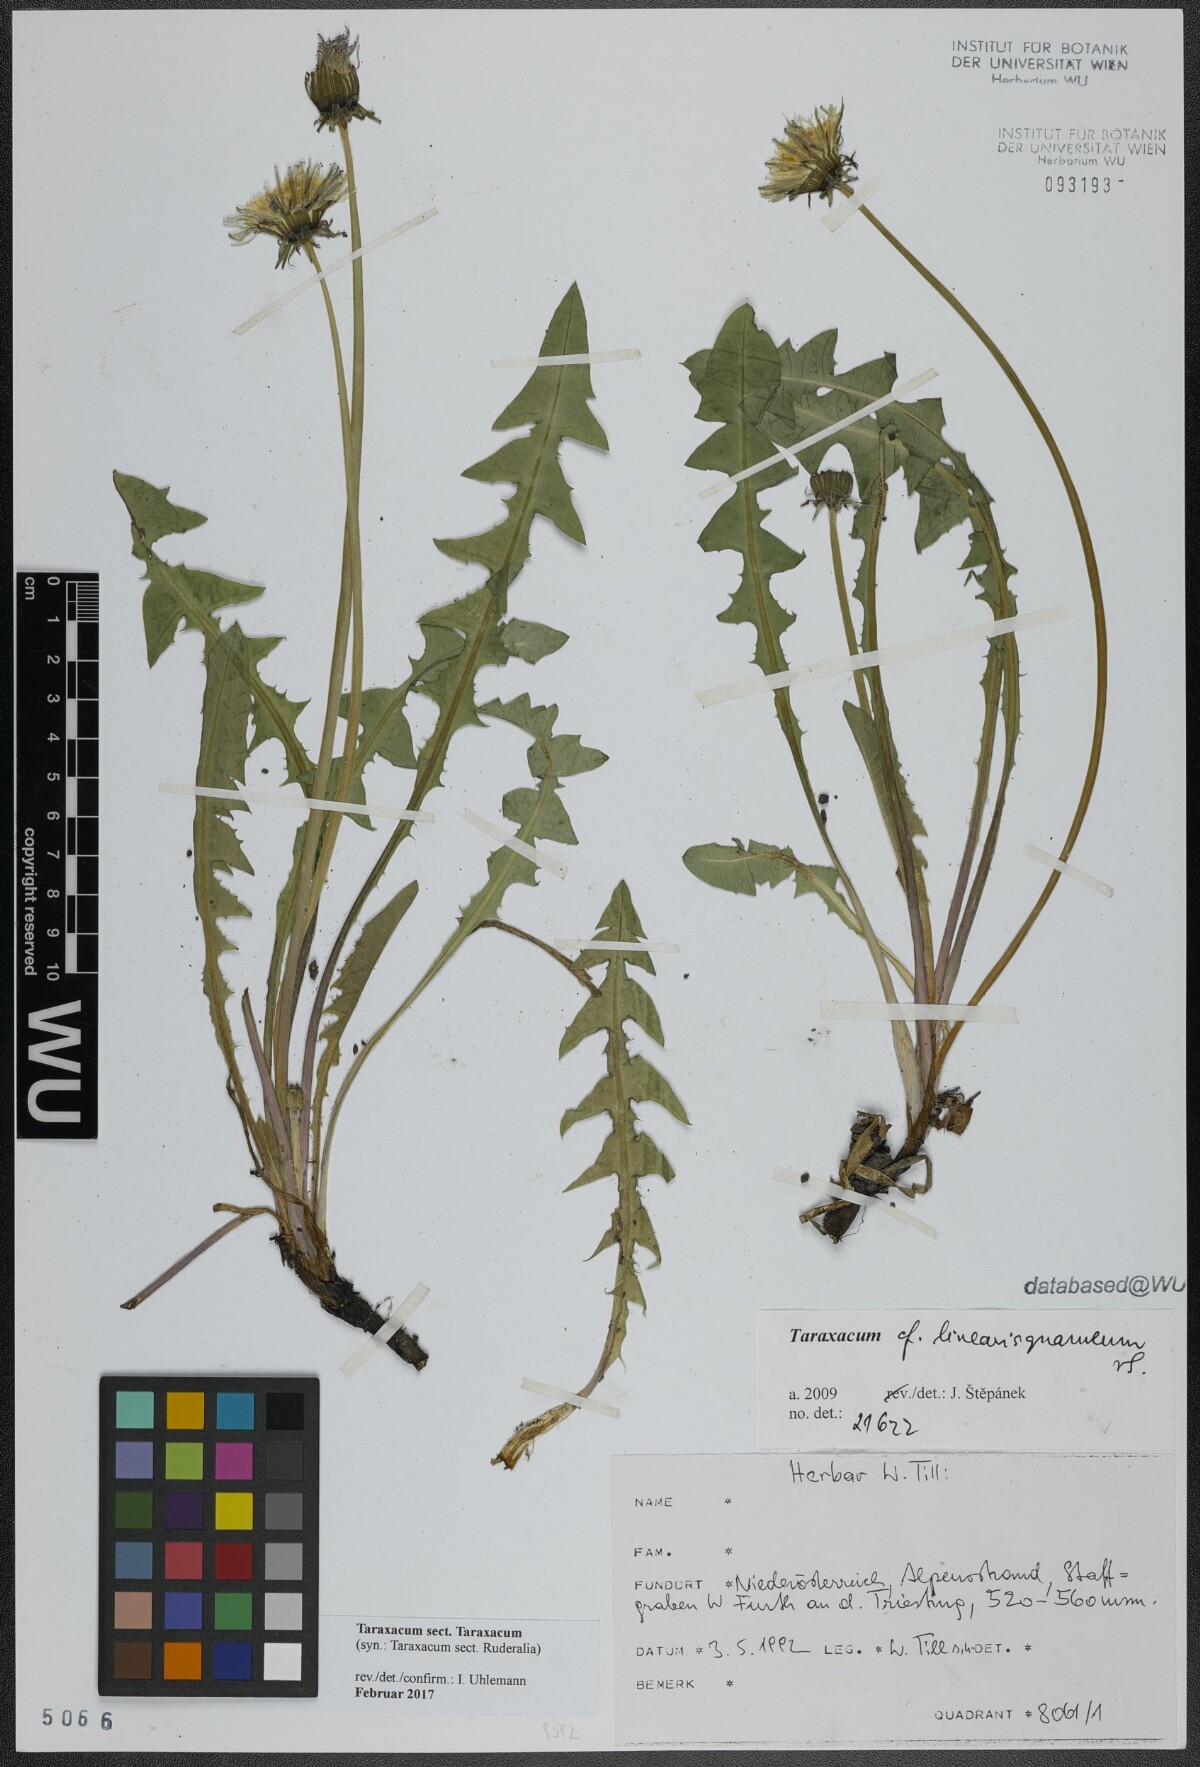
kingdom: Plantae
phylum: Tracheophyta
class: Magnoliopsida
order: Asterales
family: Asteraceae
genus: Taraxacum
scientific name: Taraxacum
